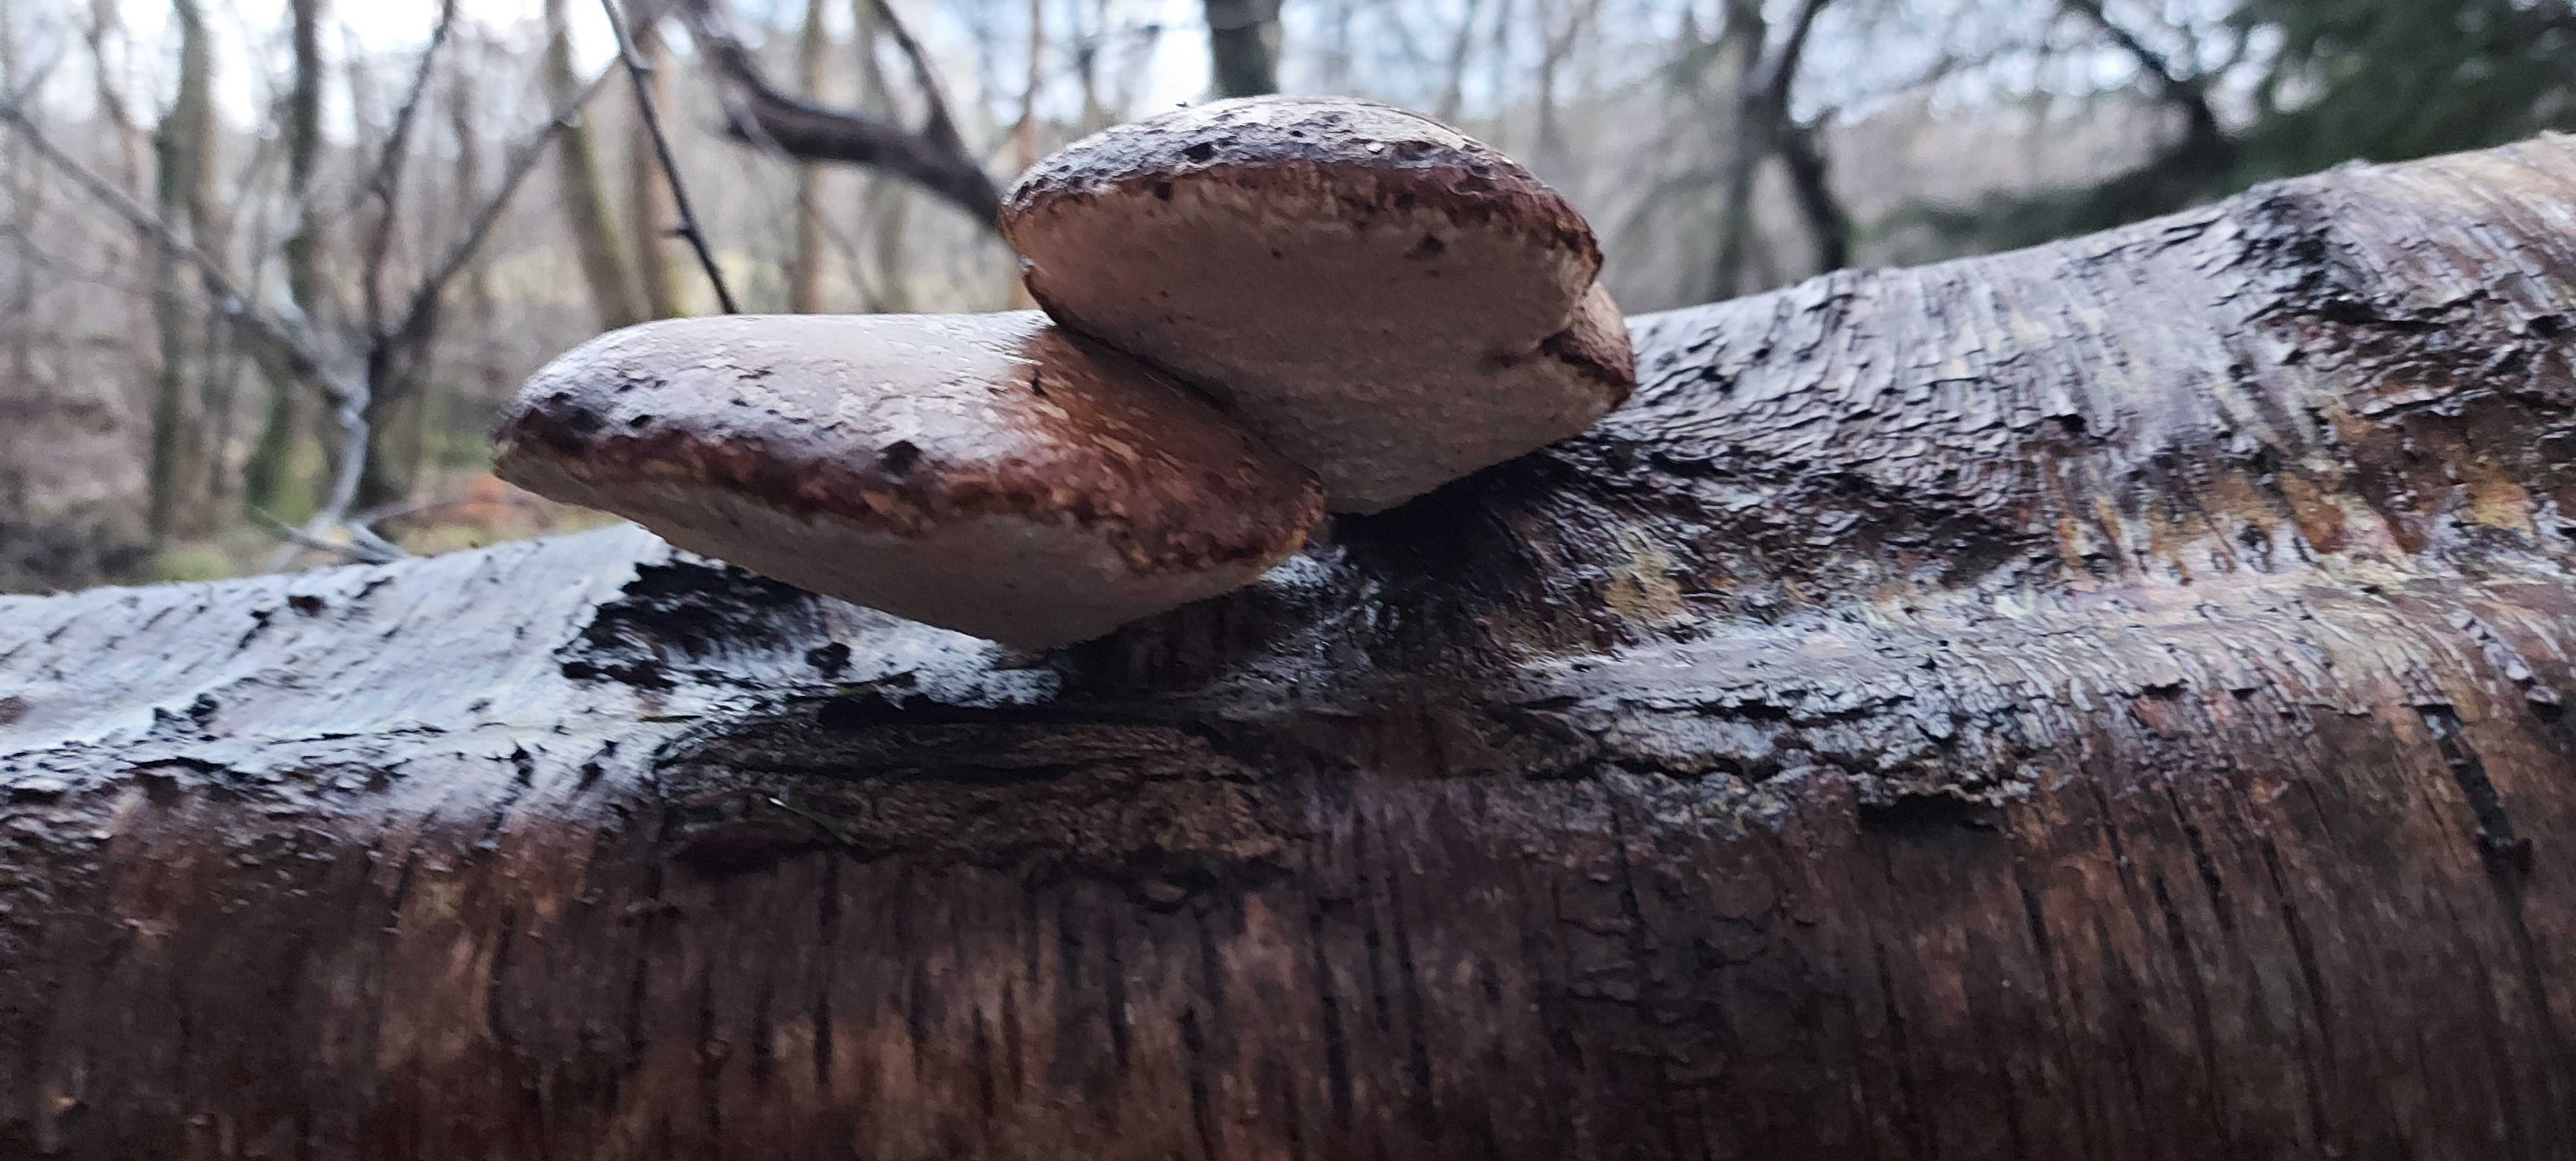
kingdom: Fungi
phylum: Basidiomycota
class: Agaricomycetes
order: Polyporales
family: Fomitopsidaceae
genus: Fomitopsis
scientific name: Fomitopsis betulina
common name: birkeporesvamp
